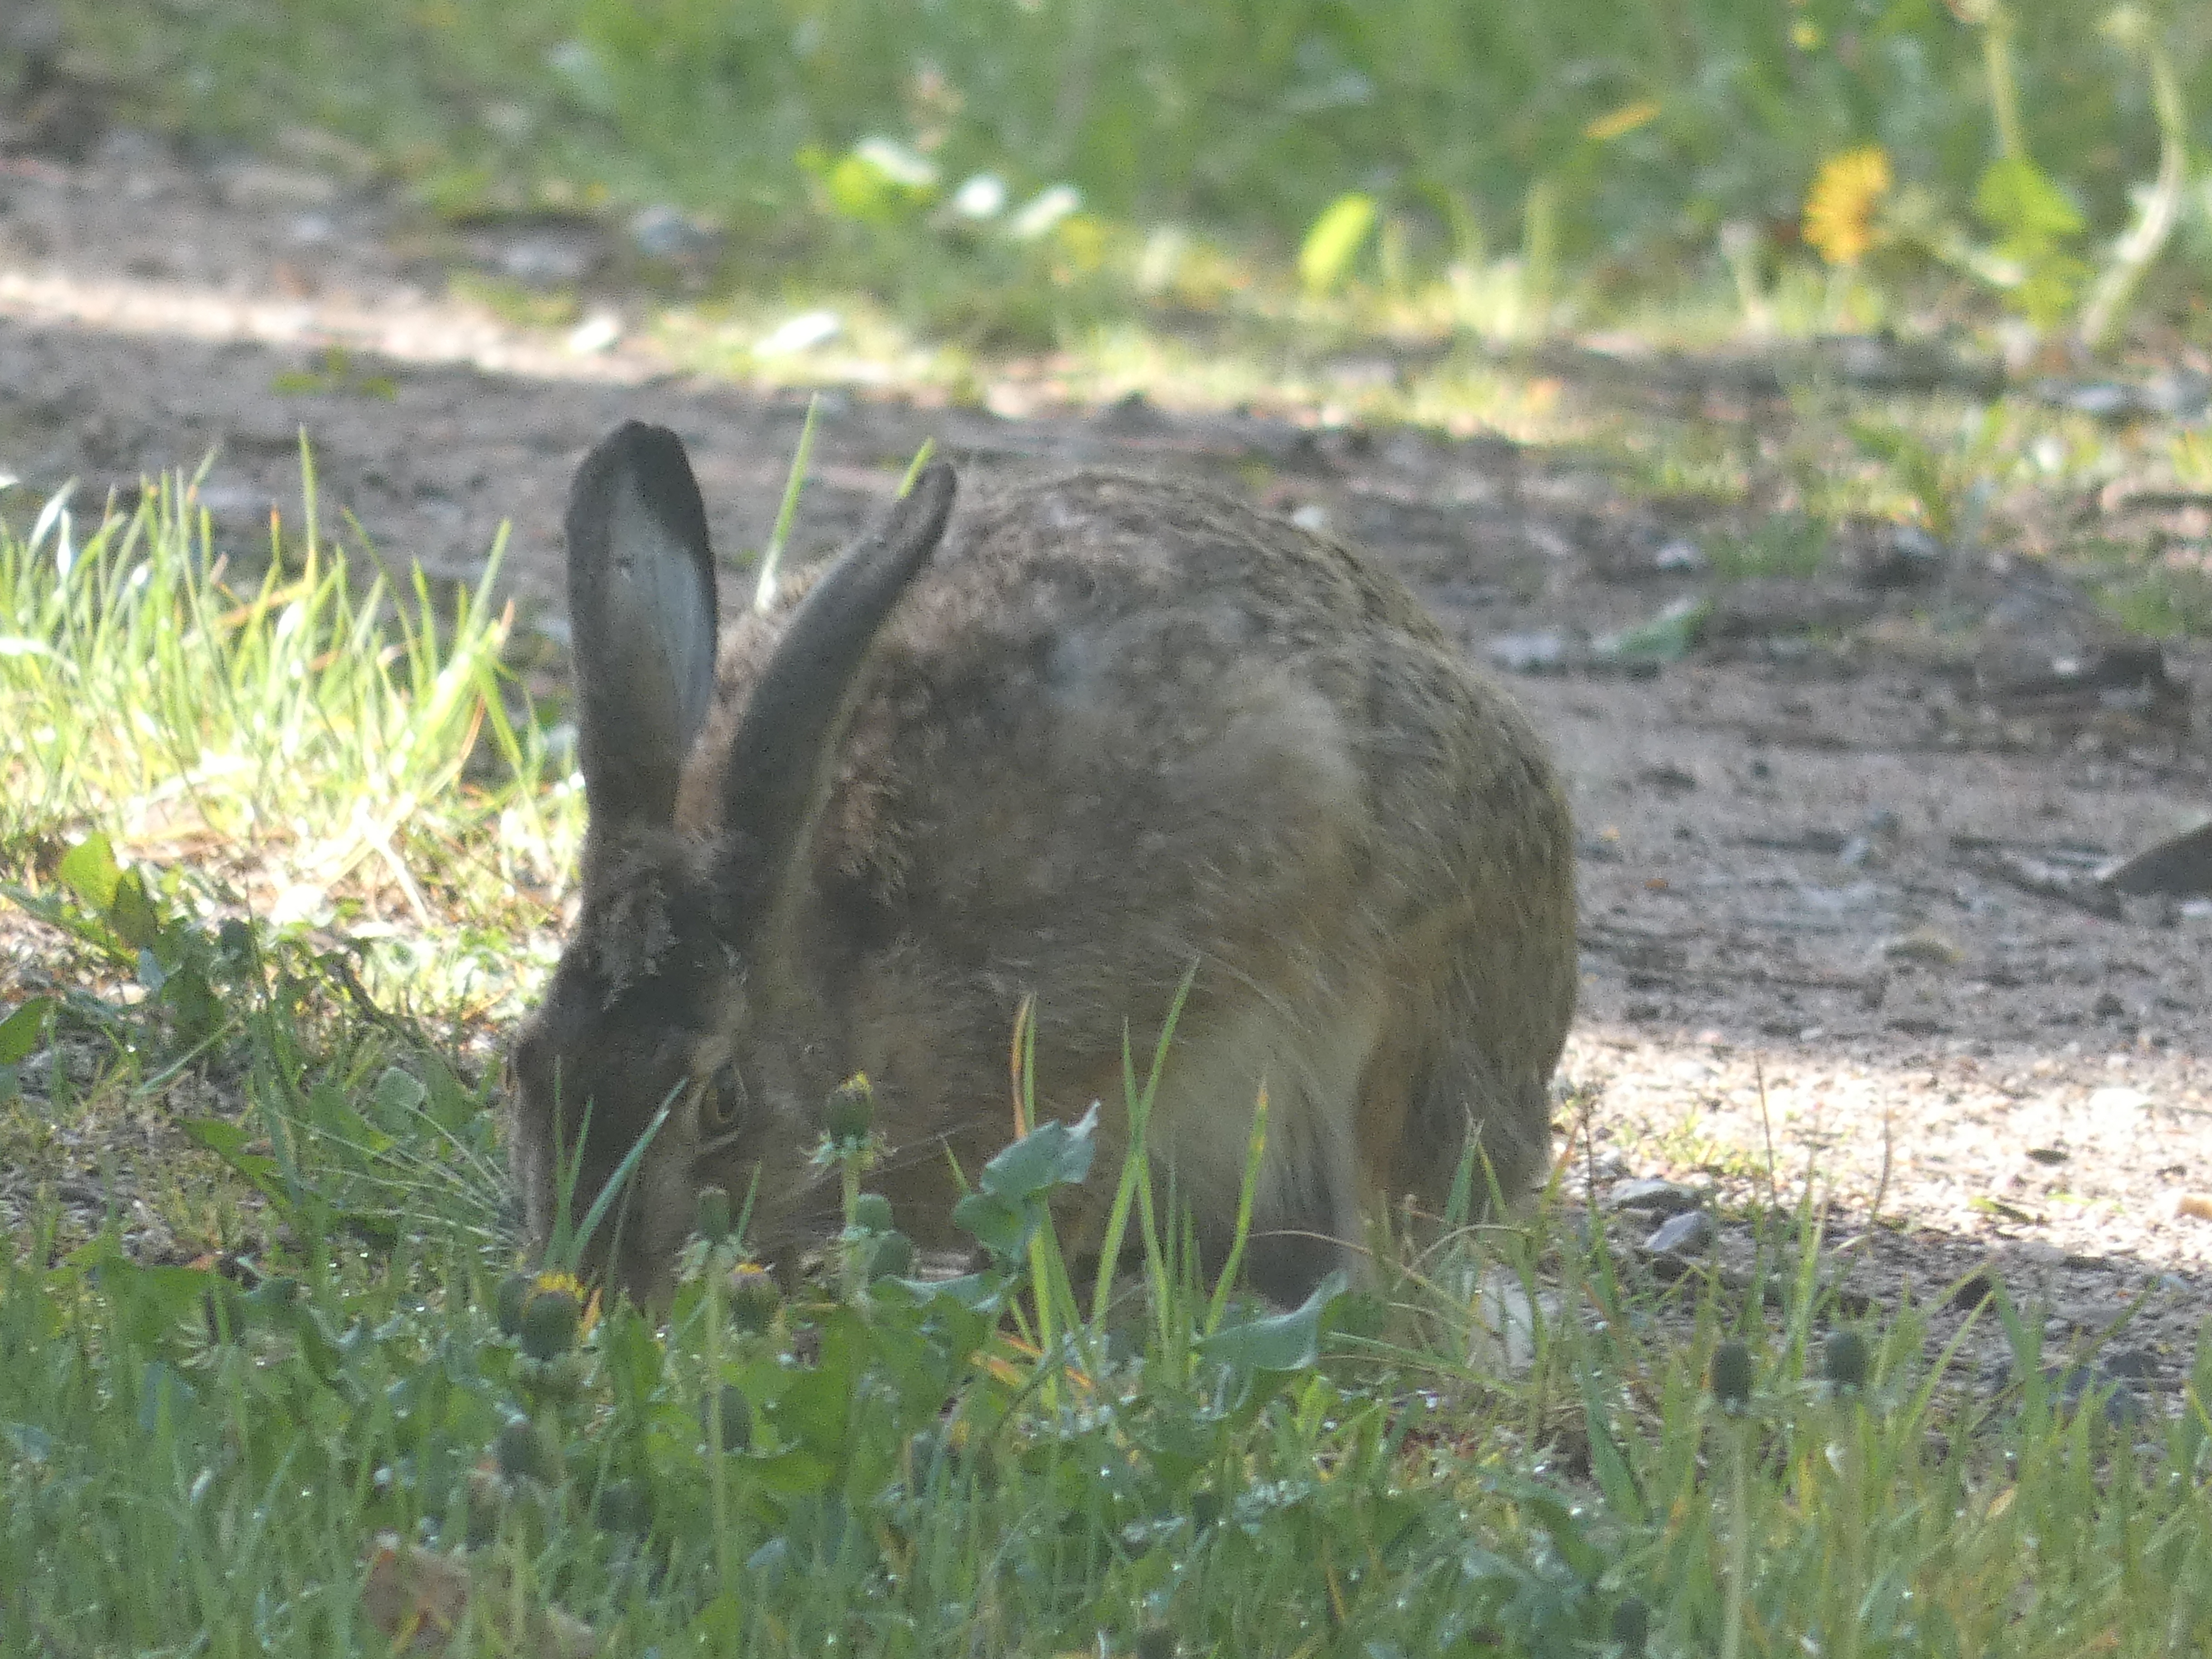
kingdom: Animalia
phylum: Chordata
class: Mammalia
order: Lagomorpha
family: Leporidae
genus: Lepus
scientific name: Lepus europaeus
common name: Hare
